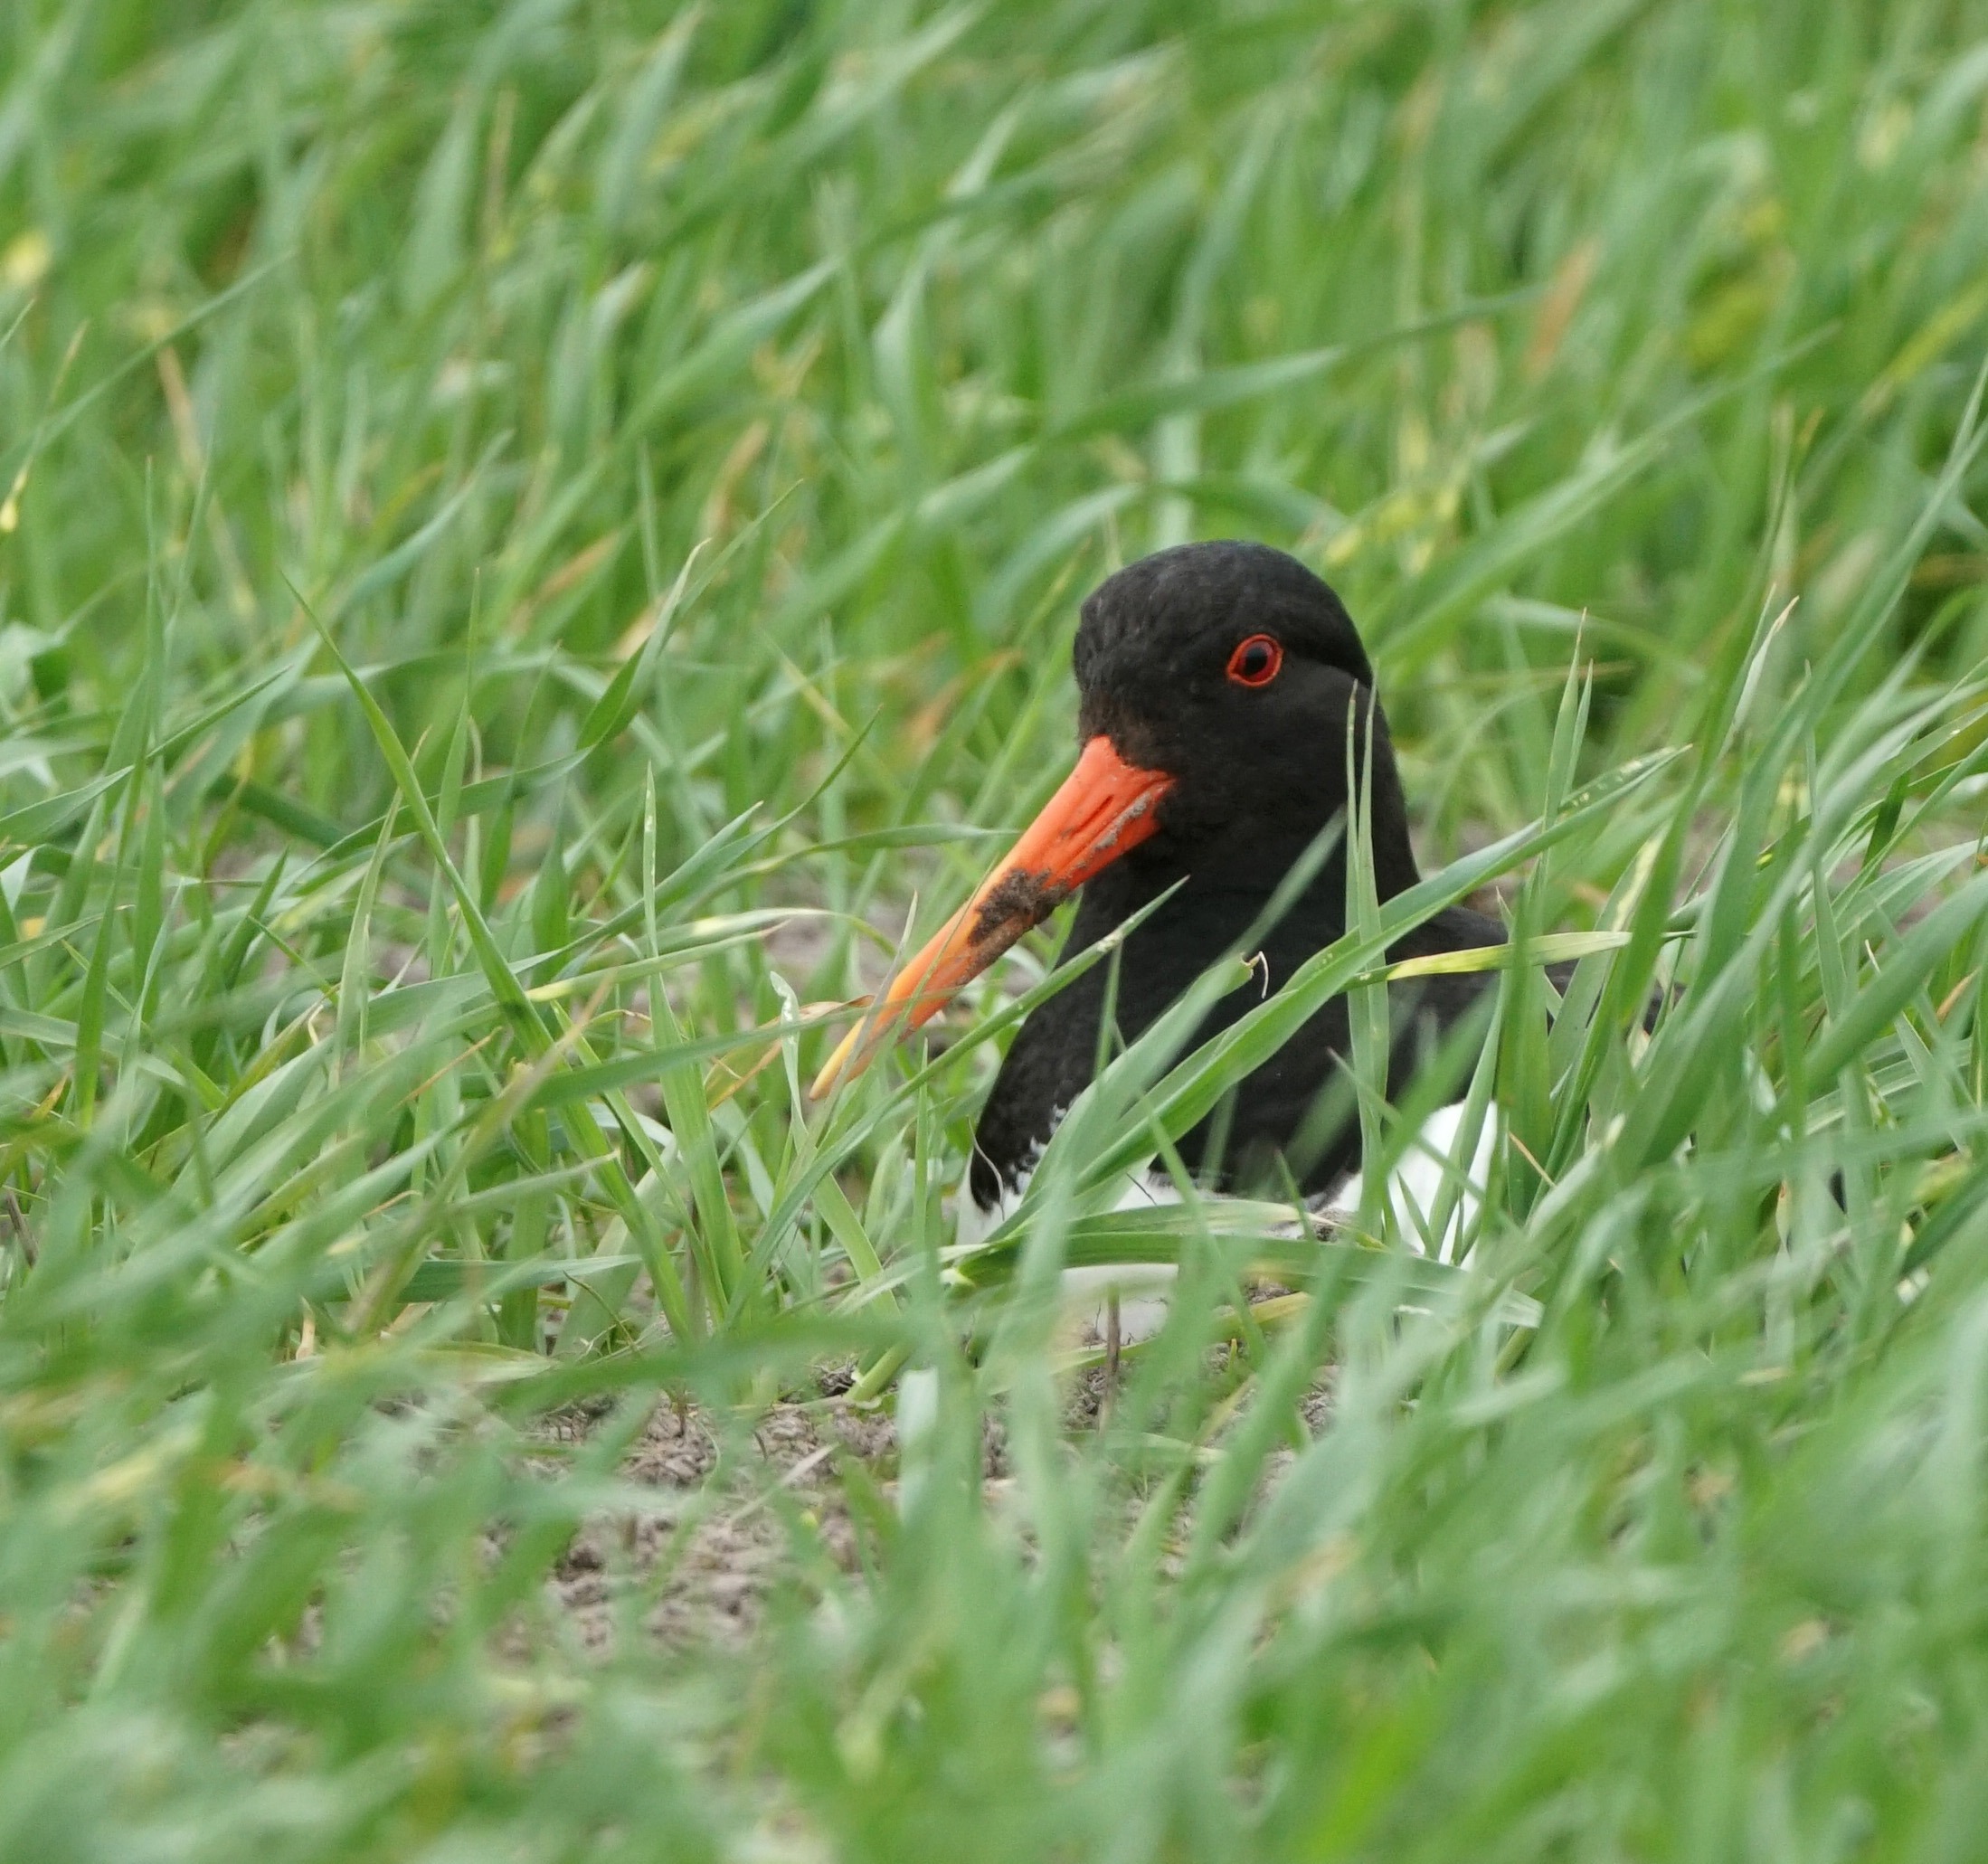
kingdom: Animalia
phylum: Chordata
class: Aves
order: Charadriiformes
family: Haematopodidae
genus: Haematopus
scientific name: Haematopus ostralegus
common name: Strandskade
